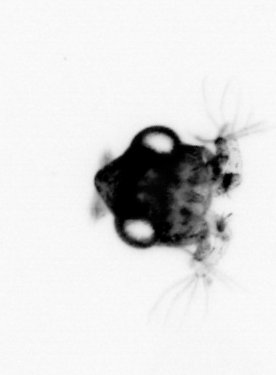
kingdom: Animalia
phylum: Arthropoda
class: Malacostraca
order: Decapoda
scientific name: Decapoda
